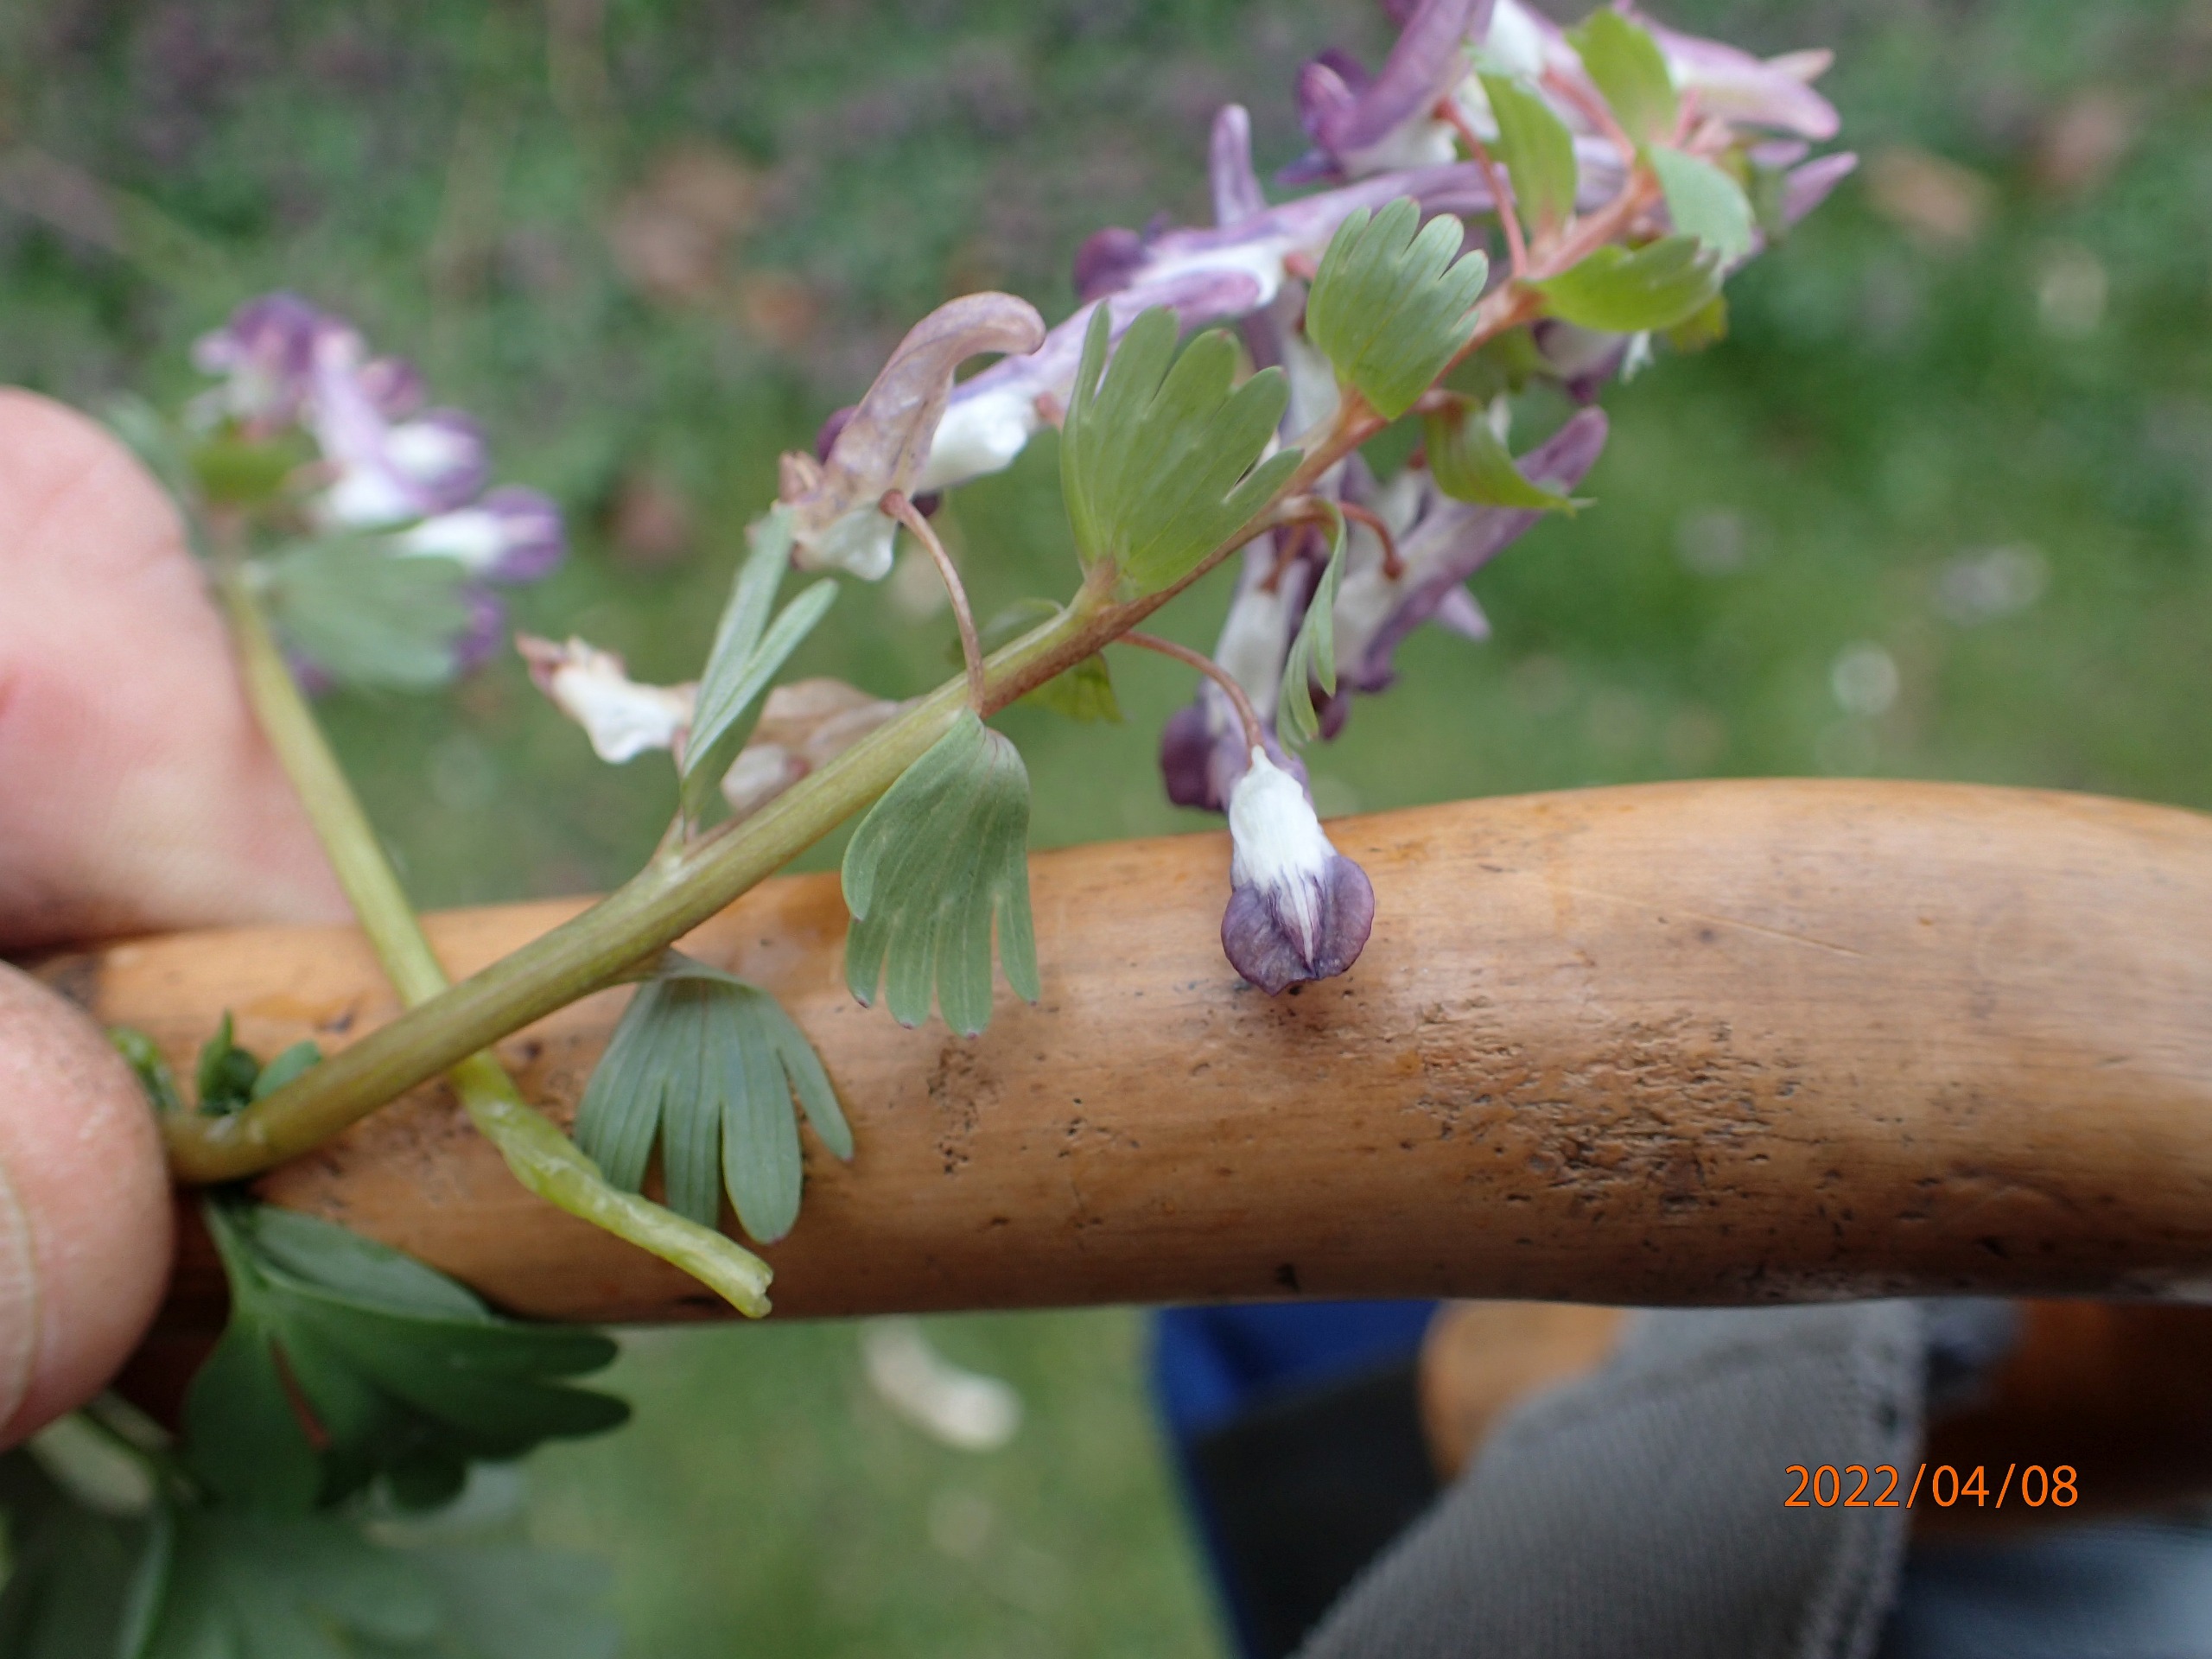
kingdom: Plantae
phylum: Tracheophyta
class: Magnoliopsida
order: Ranunculales
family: Papaveraceae
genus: Corydalis
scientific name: Corydalis solida
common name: Langstilket lærkespore
